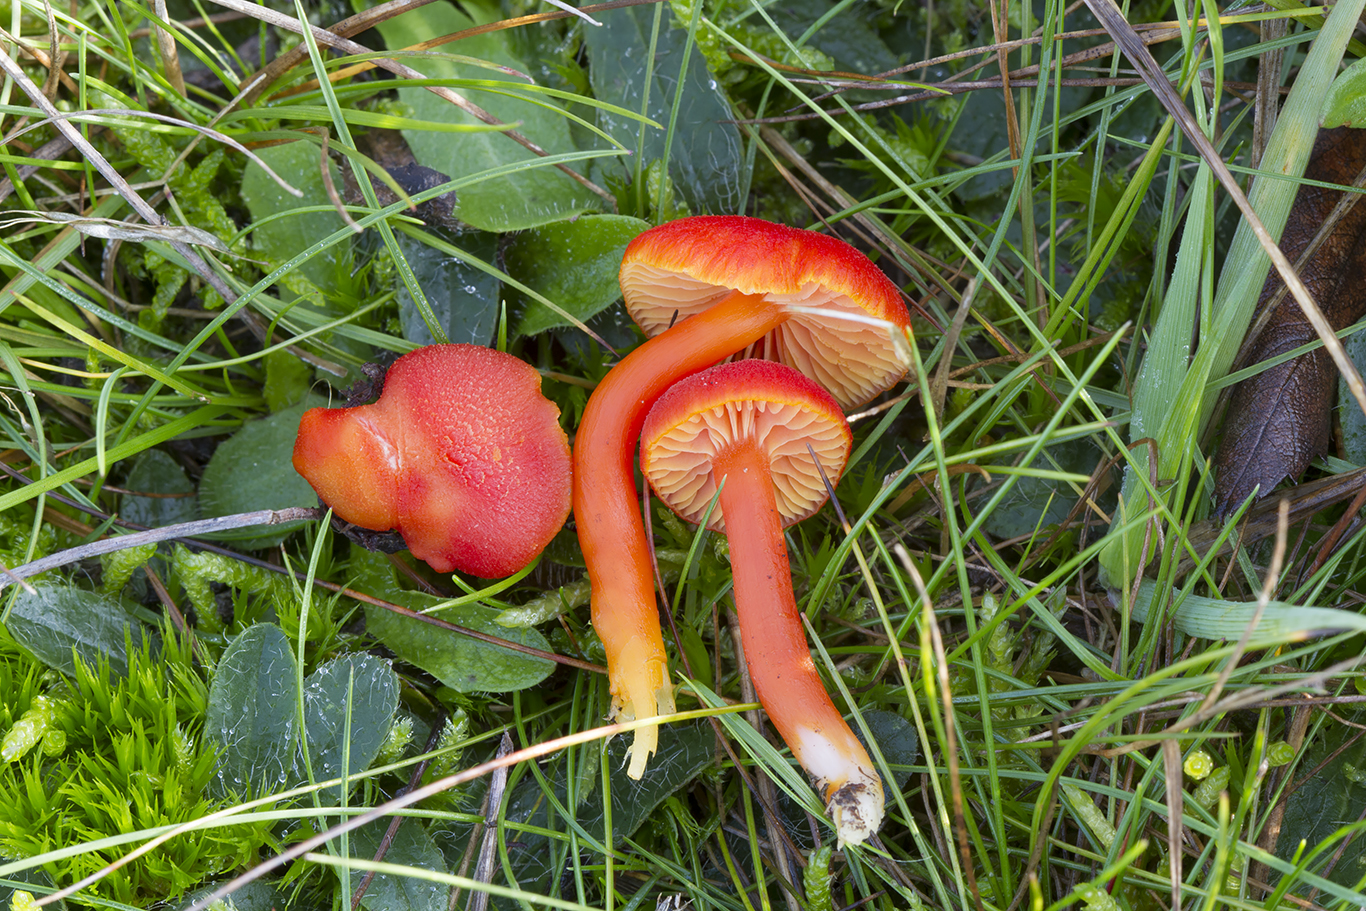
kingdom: Fungi
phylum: Basidiomycota
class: Agaricomycetes
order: Agaricales
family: Hygrophoraceae
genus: Hygrocybe
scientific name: Hygrocybe miniata
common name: mønje-vokshat
